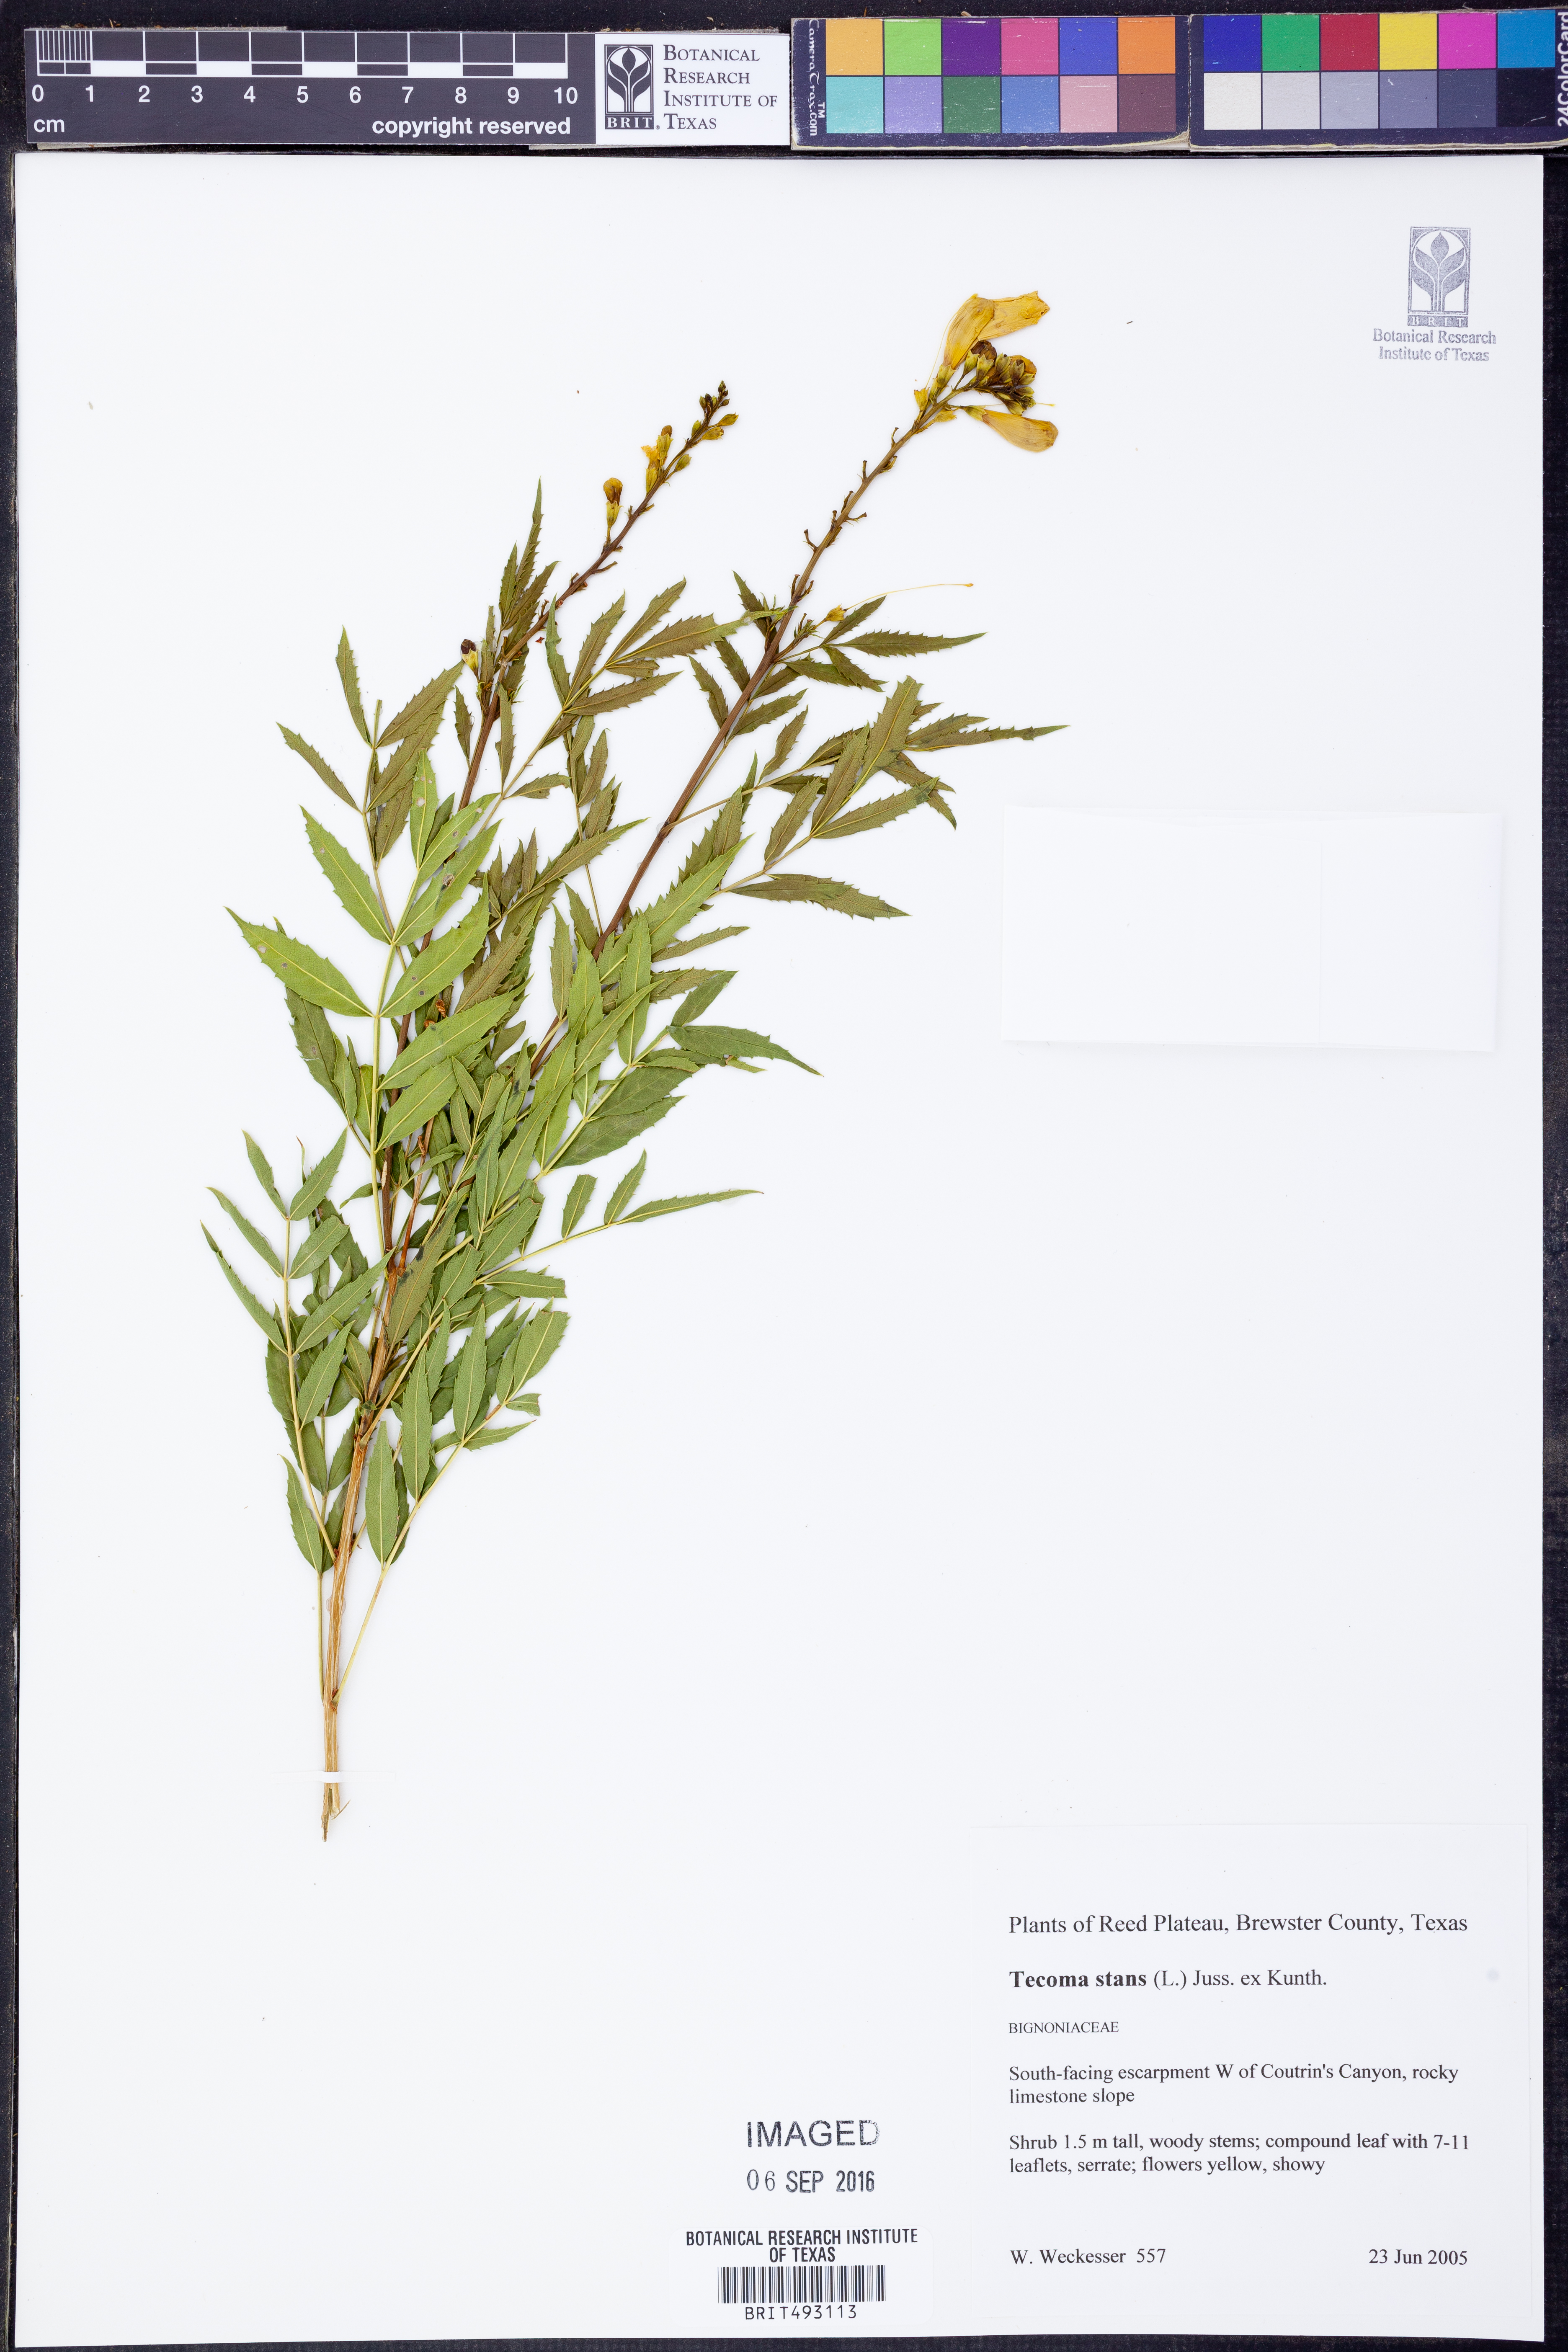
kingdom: Plantae
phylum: Tracheophyta
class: Magnoliopsida
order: Lamiales
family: Bignoniaceae
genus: Tecoma
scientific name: Tecoma stans
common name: Yellow trumpetbush
